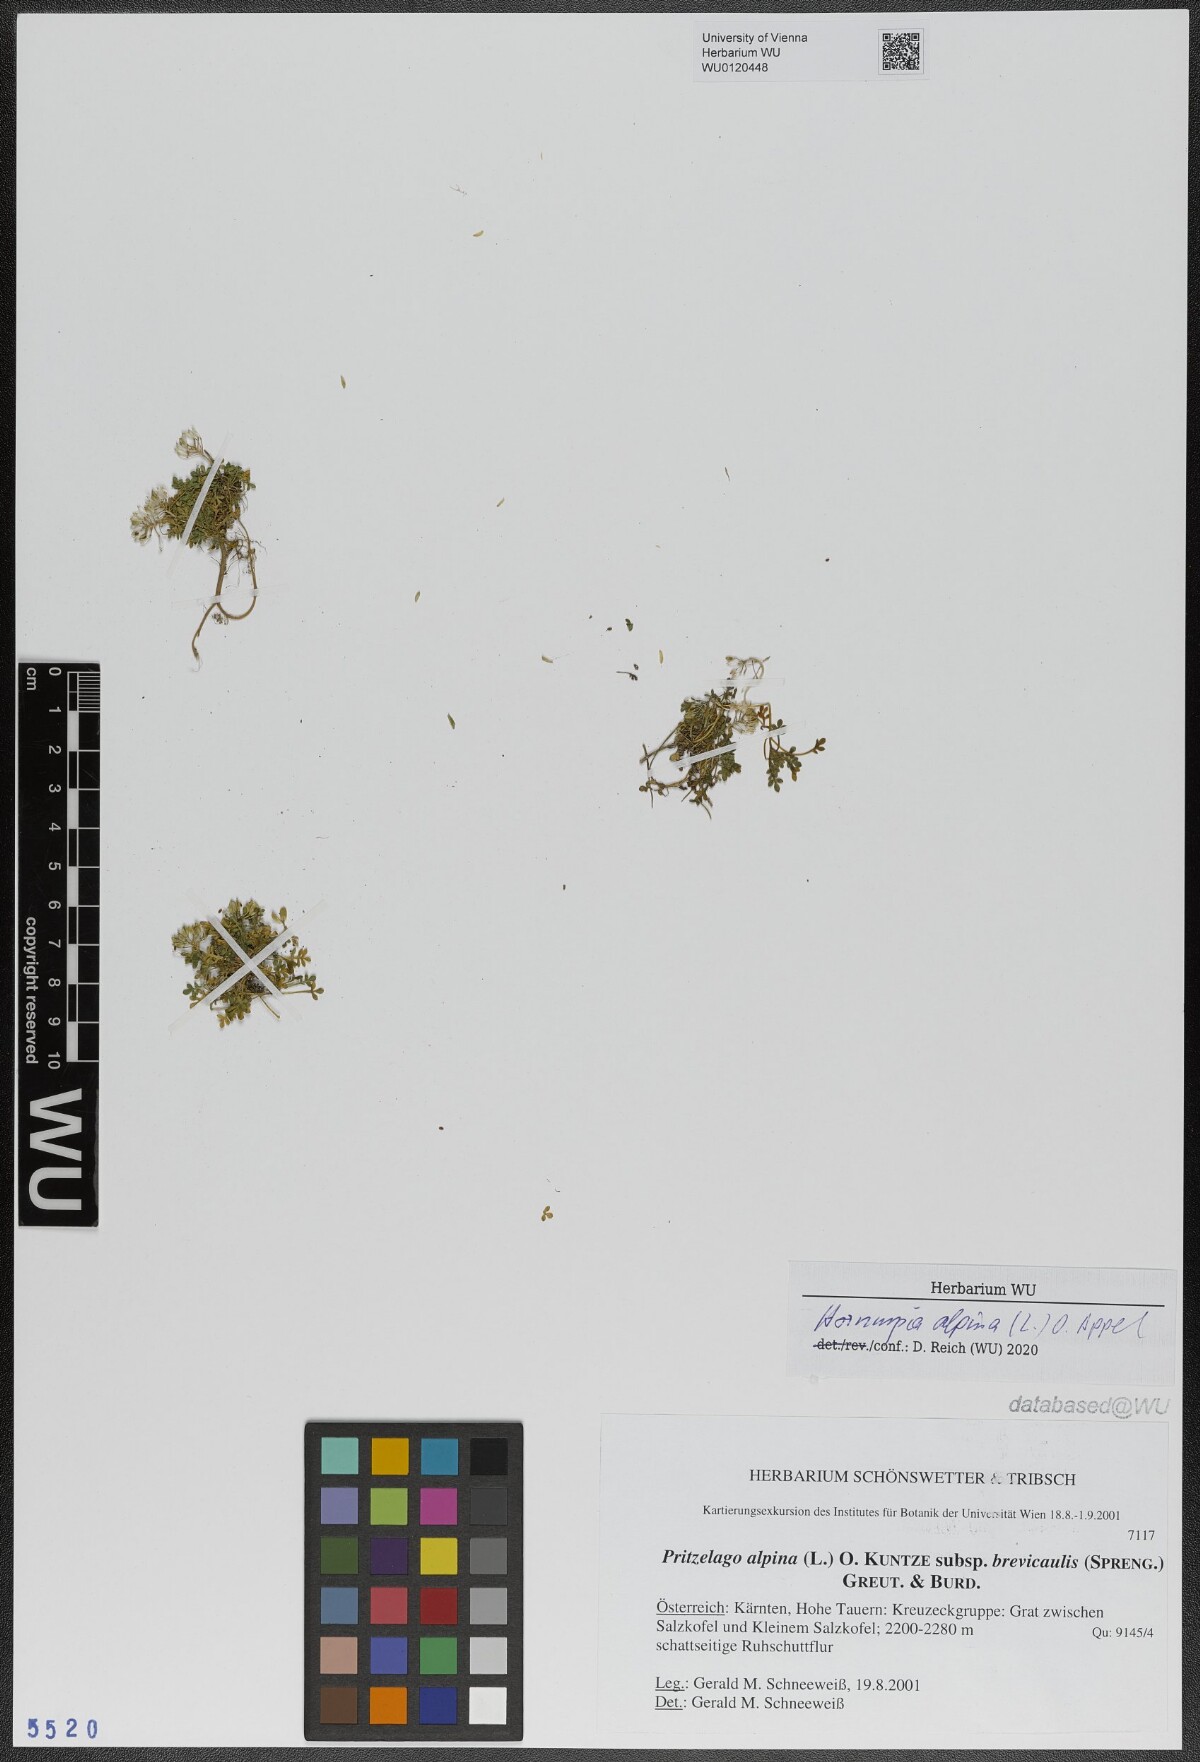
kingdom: Plantae
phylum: Tracheophyta
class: Magnoliopsida
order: Brassicales
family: Brassicaceae
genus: Hornungia
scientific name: Hornungia alpina
